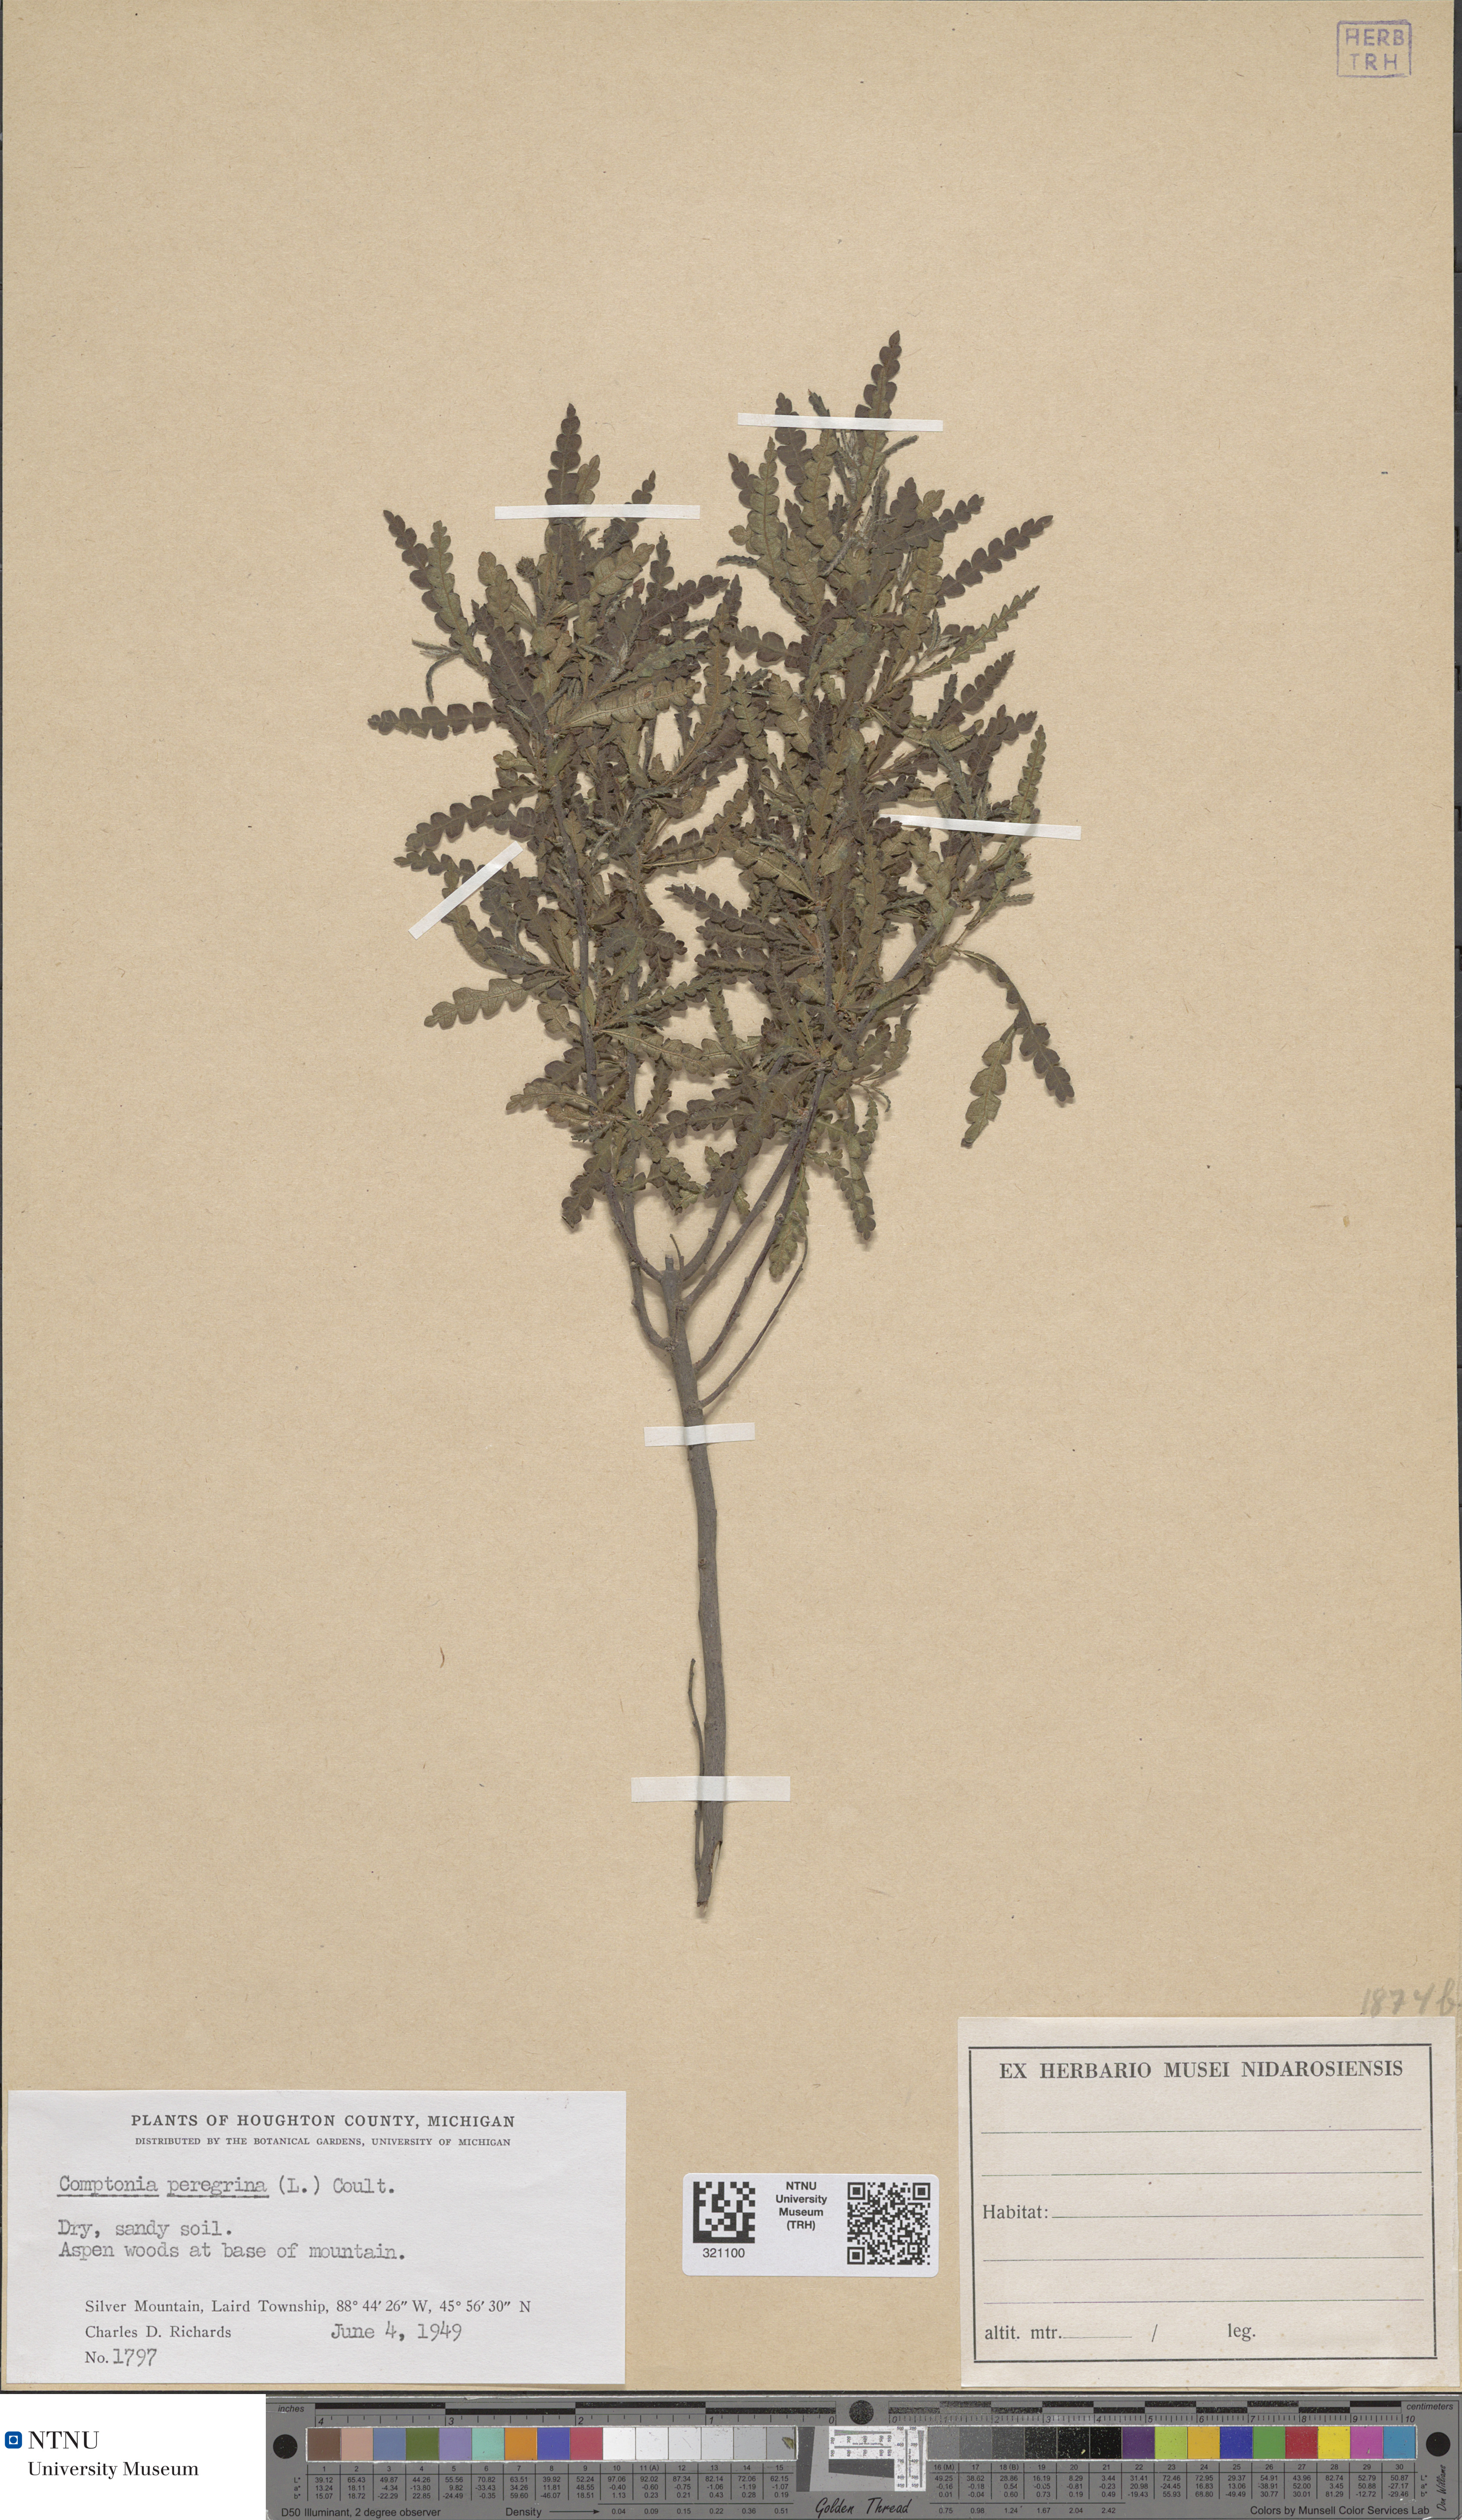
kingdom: Plantae
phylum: Tracheophyta
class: Magnoliopsida
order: Fagales
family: Myricaceae
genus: Comptonia
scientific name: Comptonia peregrina
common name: Sweet-fern
